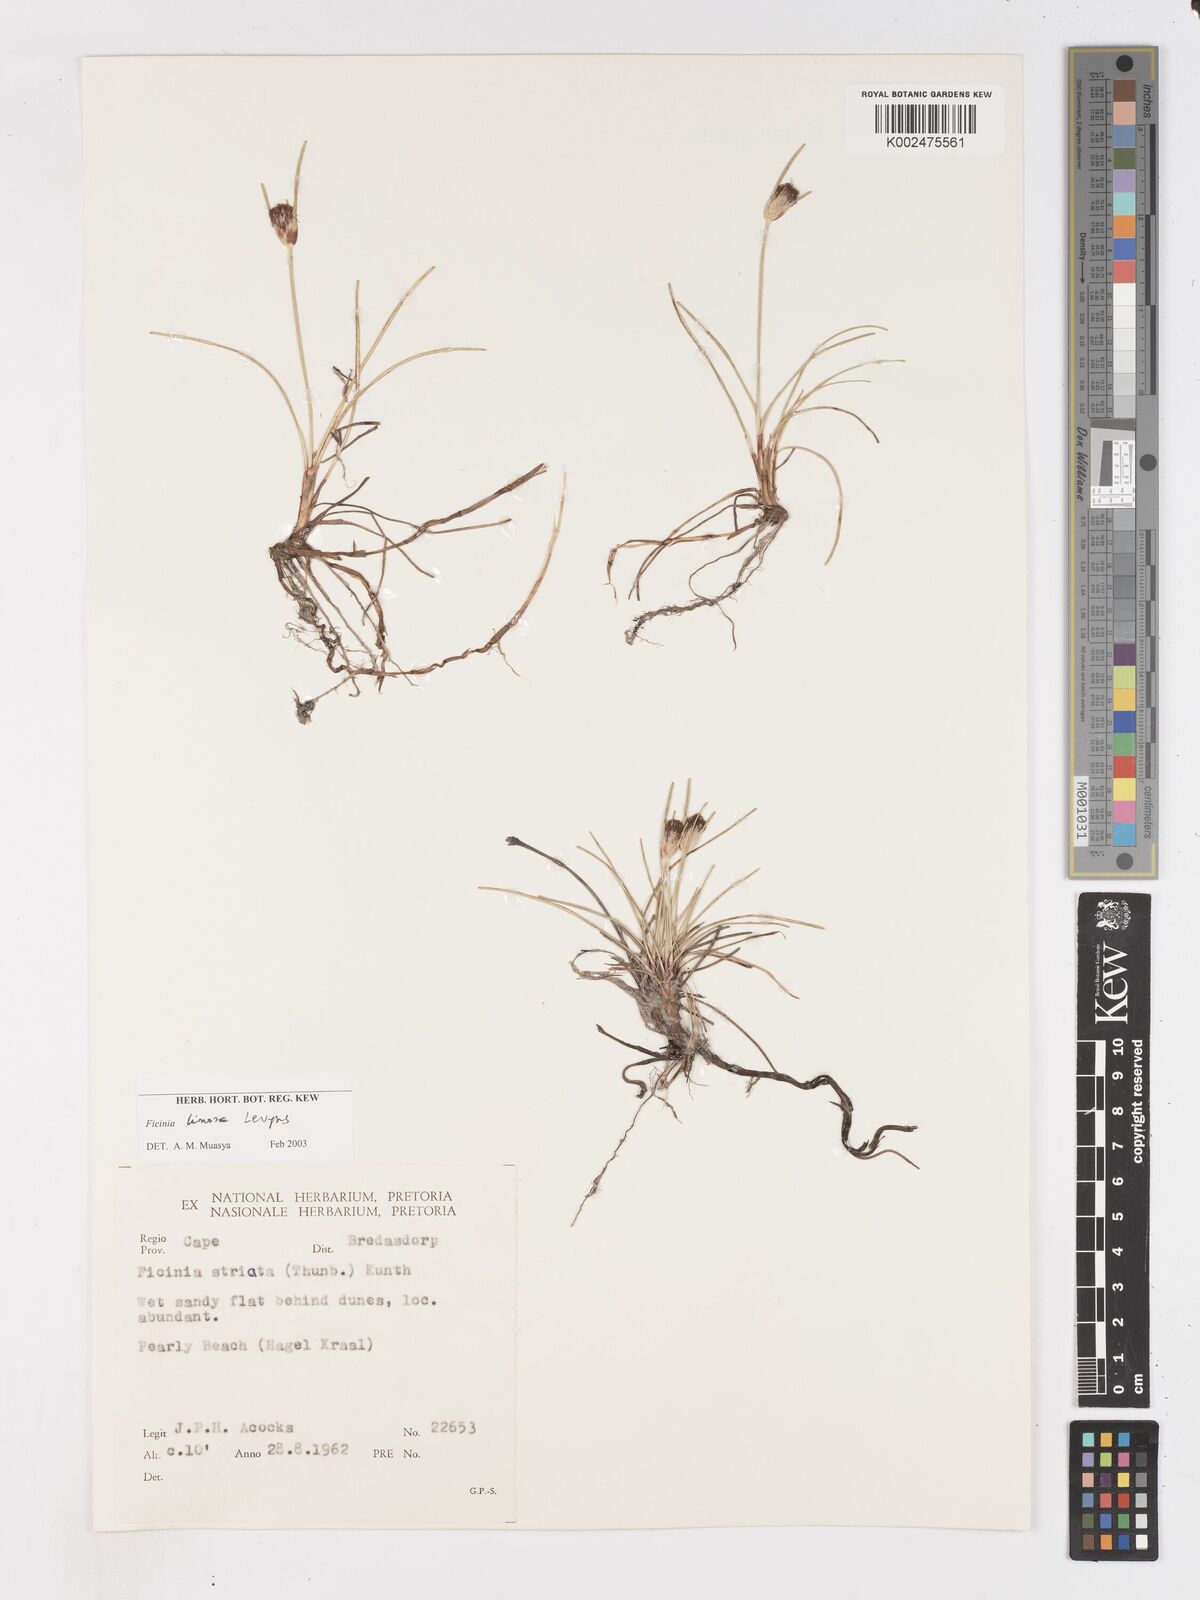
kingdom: Plantae
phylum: Tracheophyta
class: Liliopsida
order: Poales
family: Cyperaceae
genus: Ficinia
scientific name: Ficinia pygmaea
